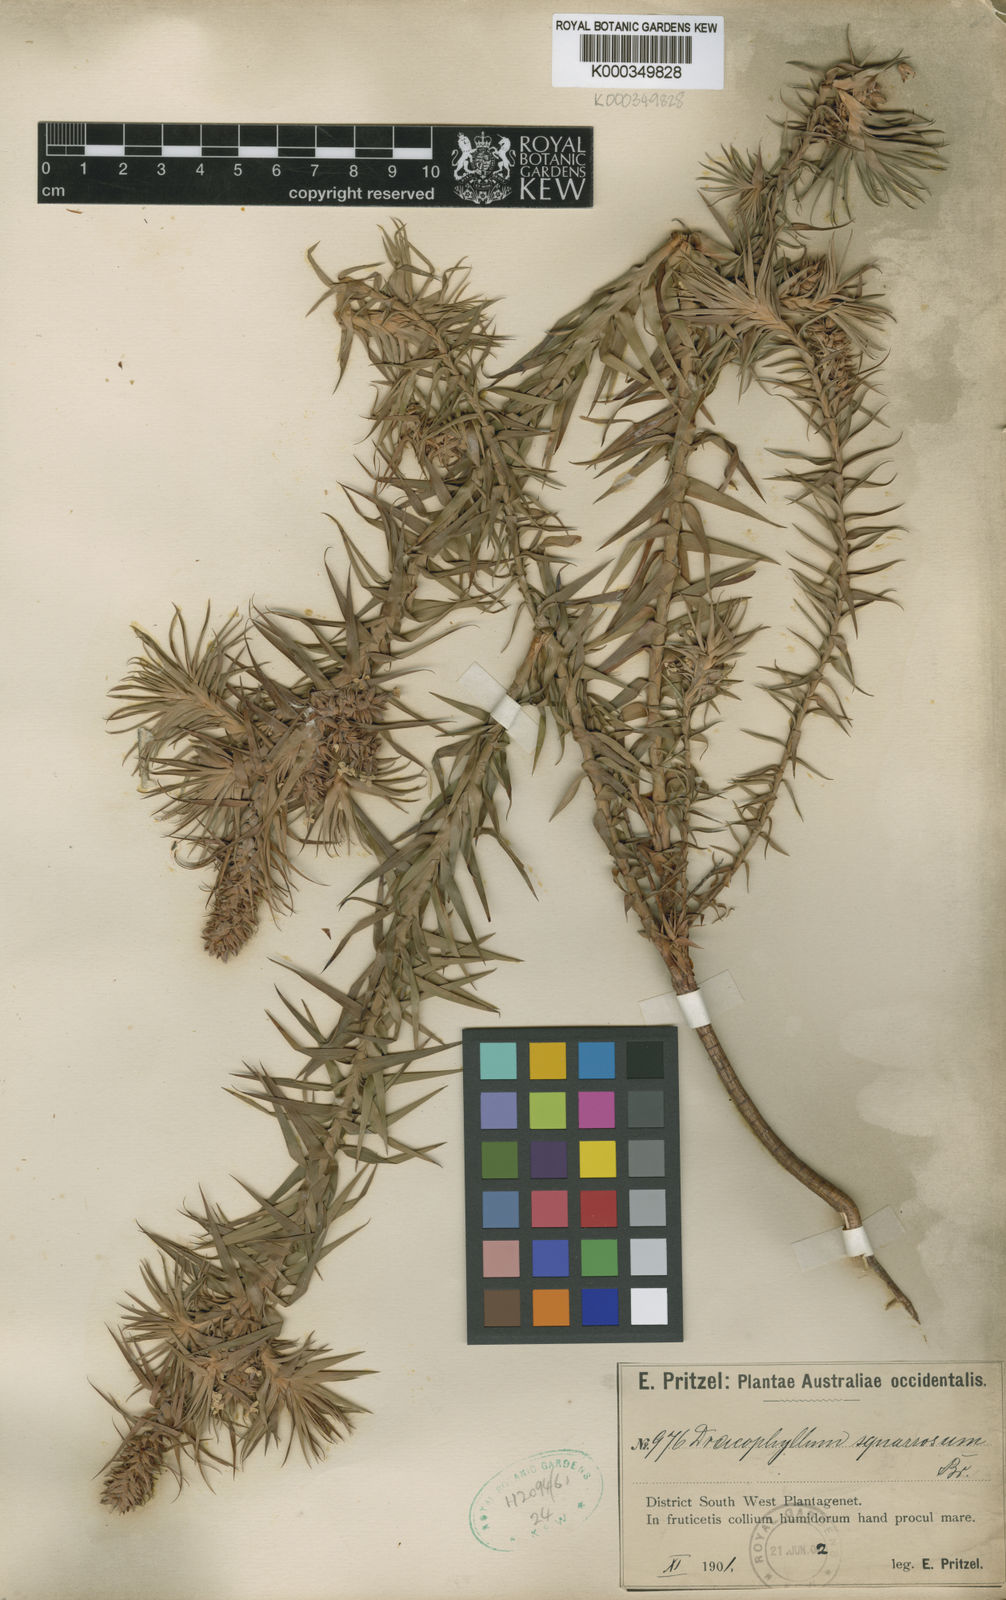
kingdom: Plantae
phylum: Tracheophyta
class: Magnoliopsida
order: Ericales
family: Ericaceae
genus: Sphenotoma
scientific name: Sphenotoma squarrosum
